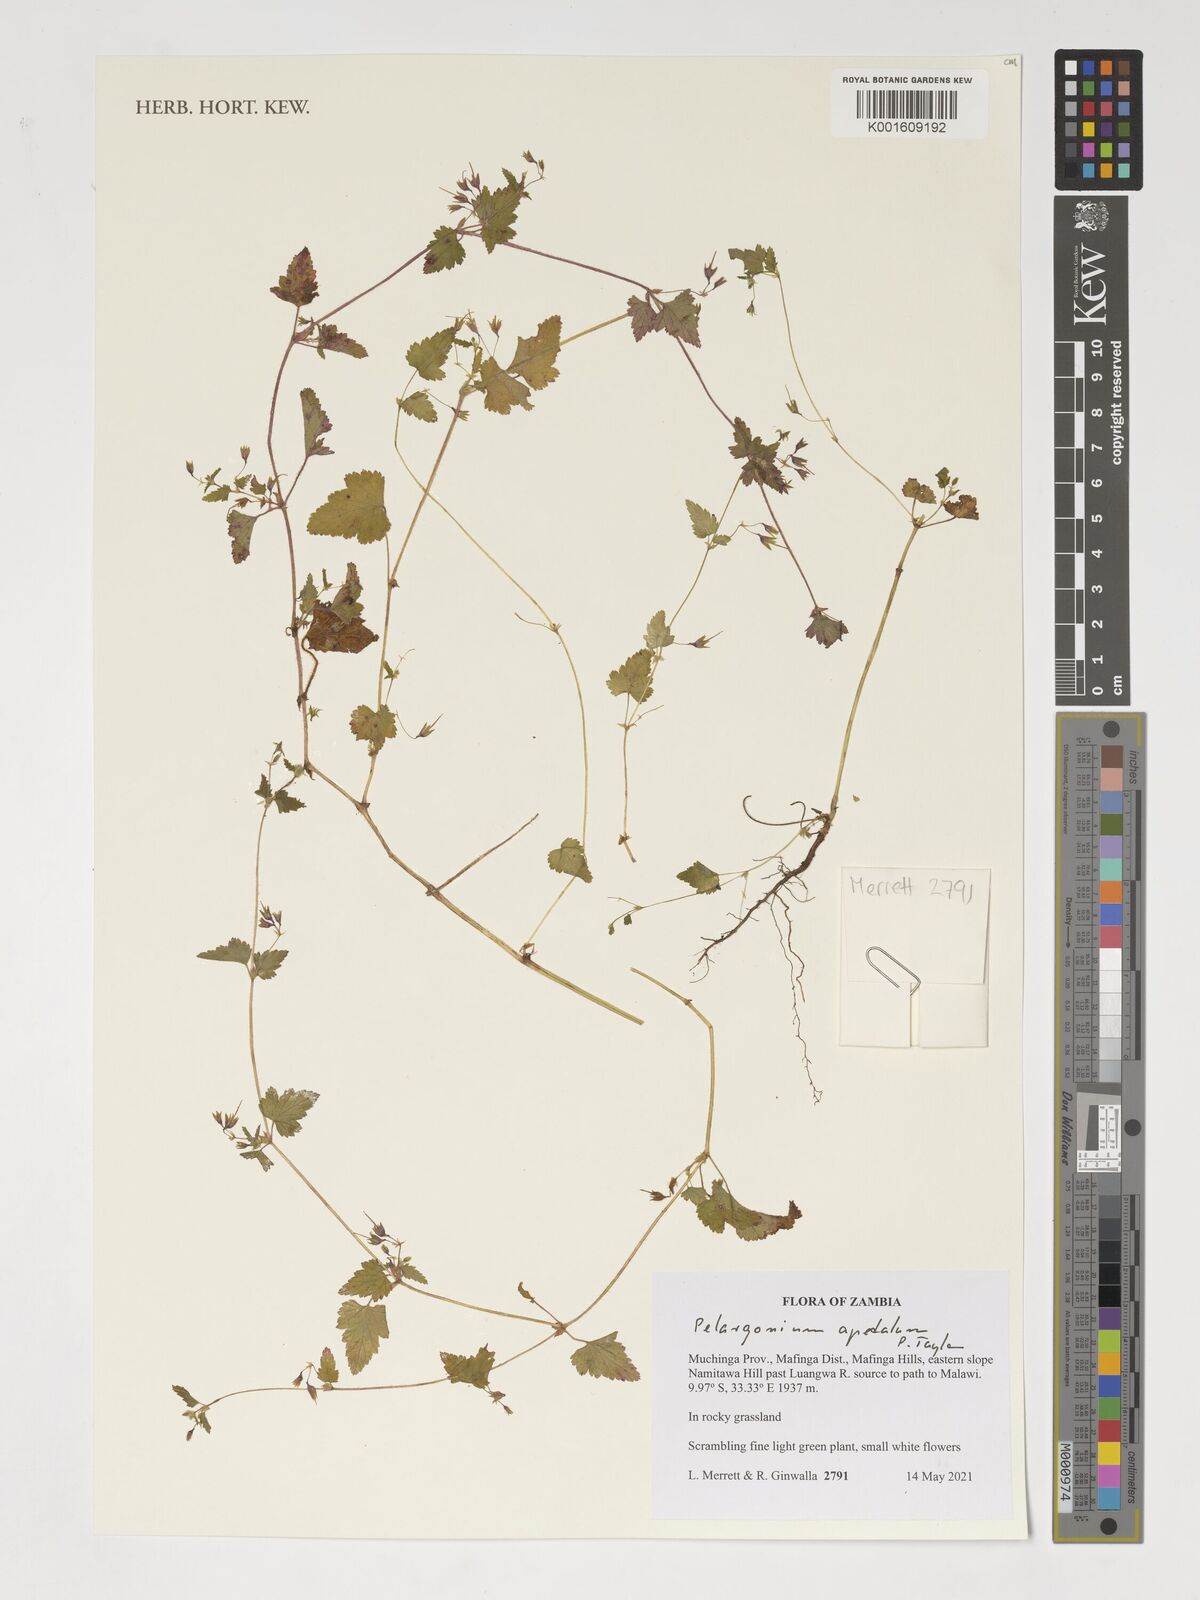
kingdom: Plantae
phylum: Tracheophyta
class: Magnoliopsida
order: Geraniales
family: Geraniaceae
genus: Pelargonium
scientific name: Pelargonium apetalum
